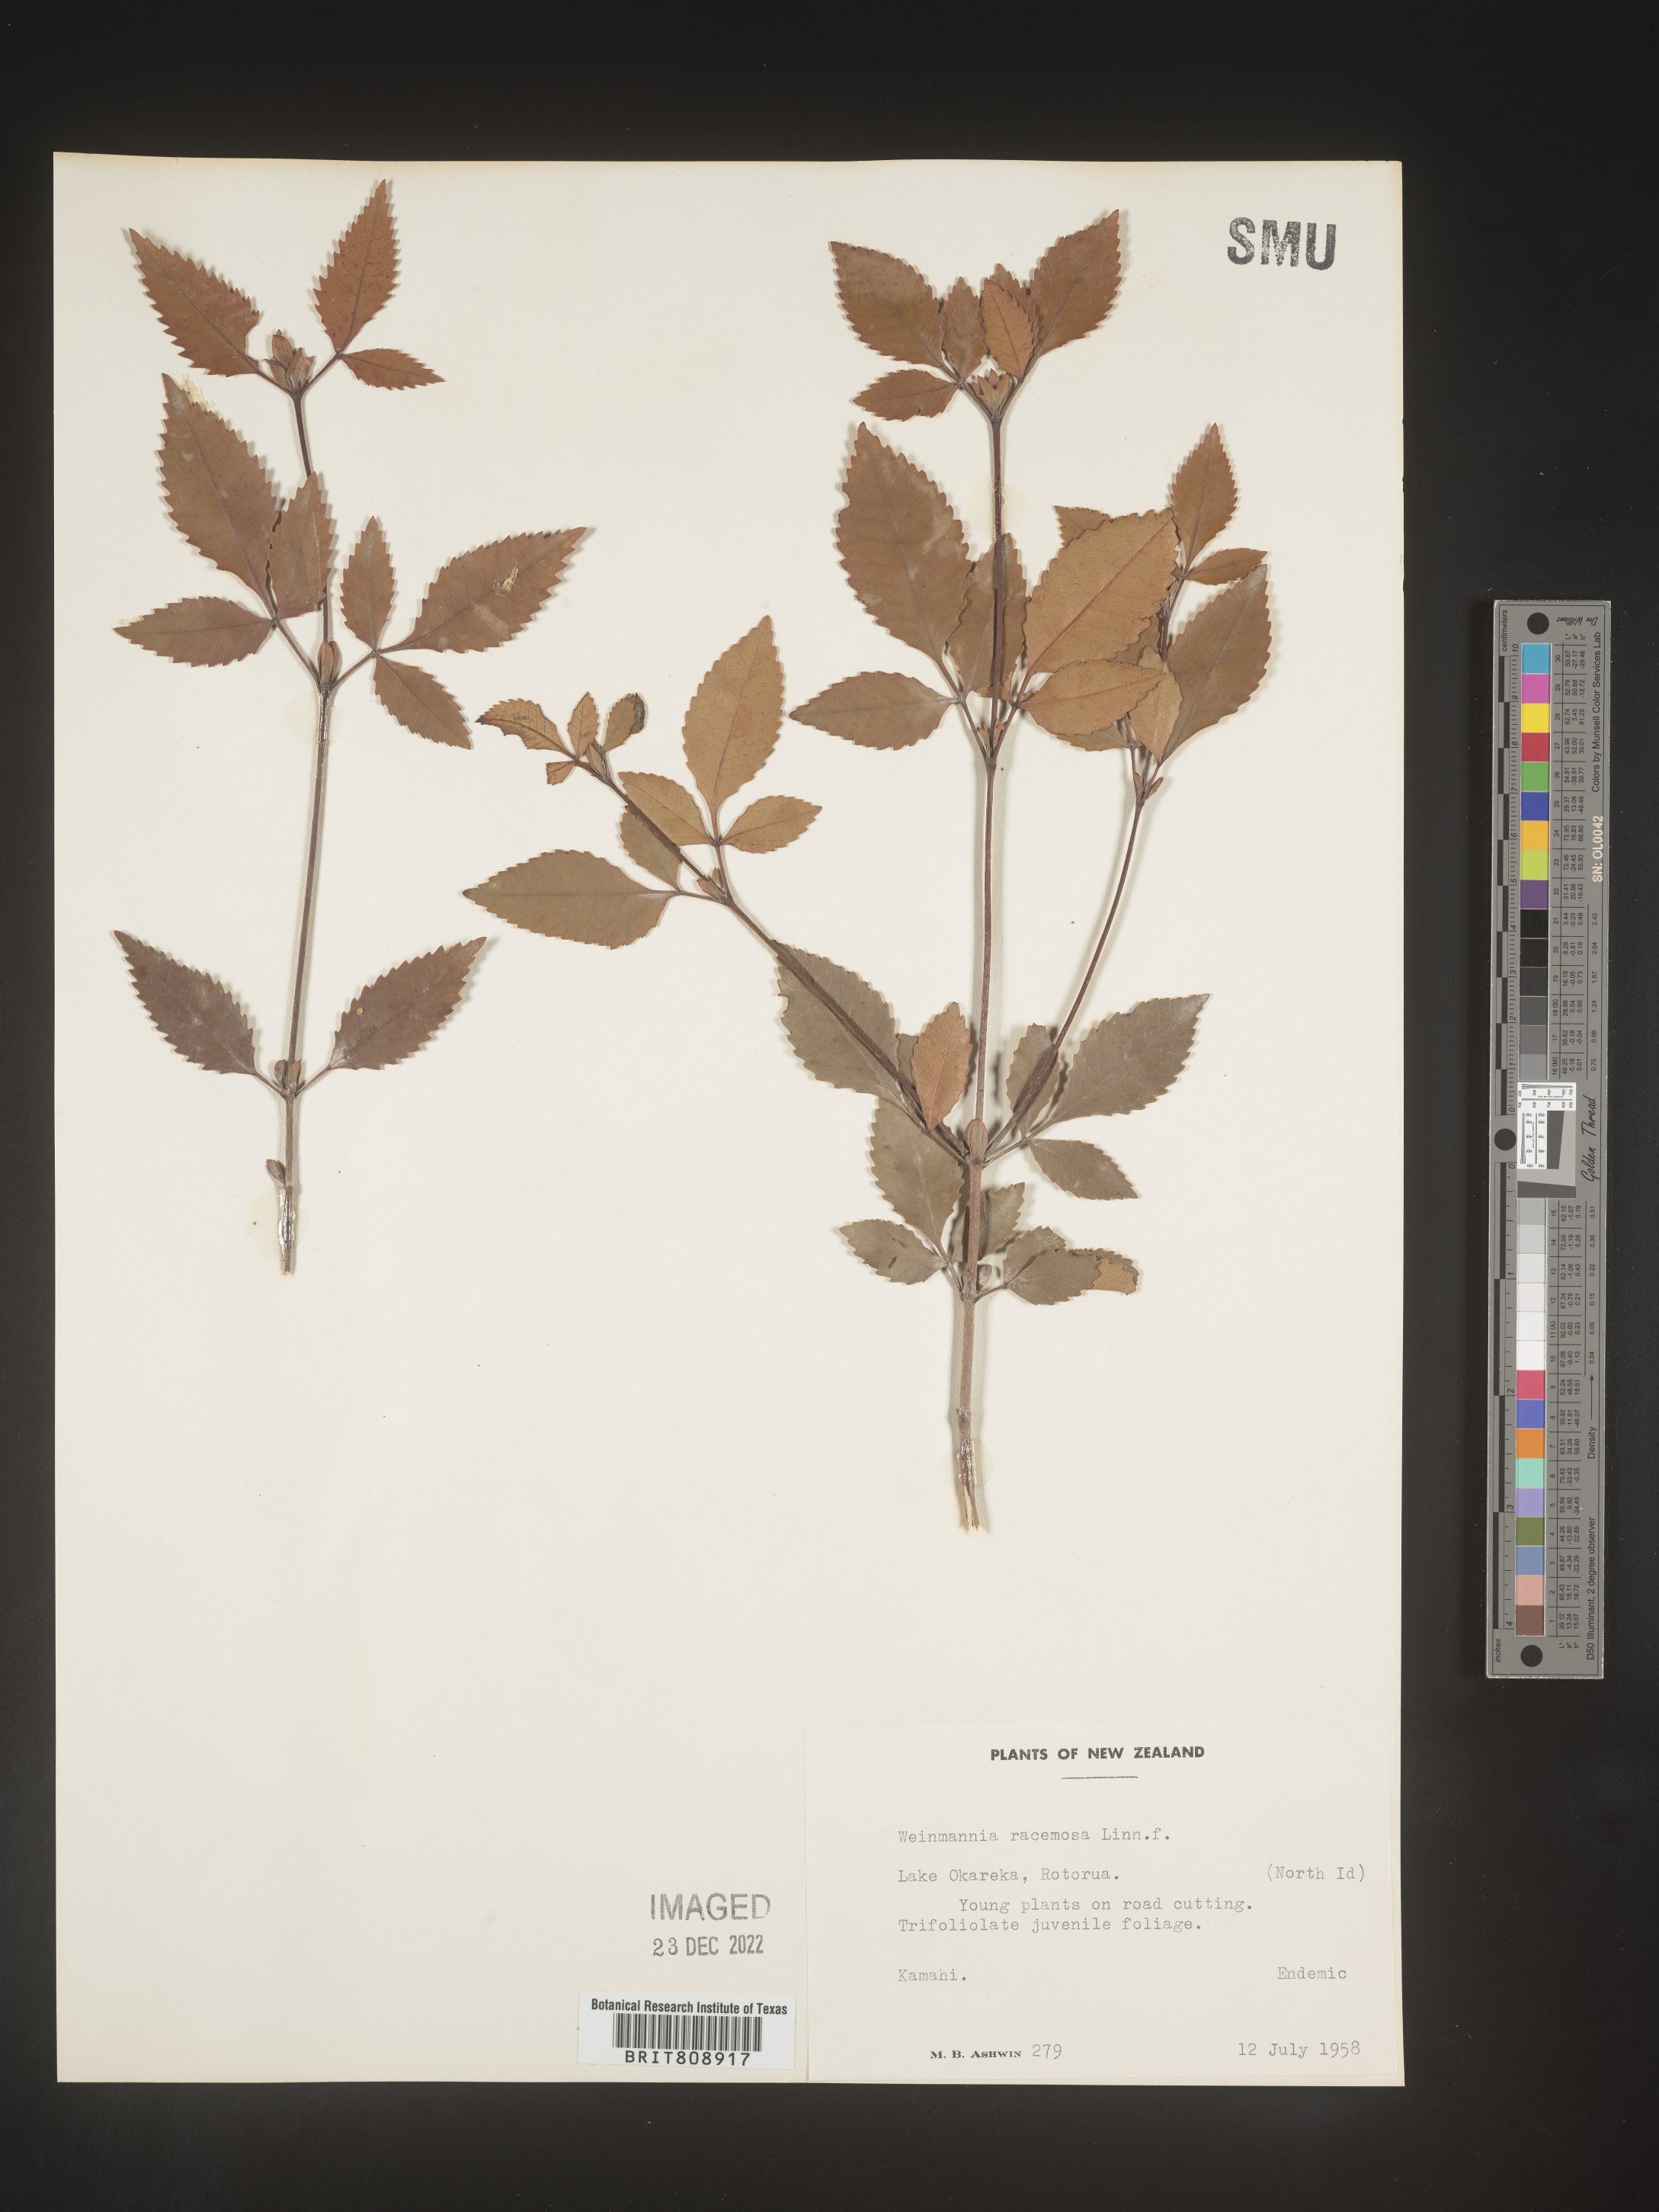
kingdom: Plantae
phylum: Tracheophyta
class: Magnoliopsida
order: Oxalidales
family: Cunoniaceae
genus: Weinmannia
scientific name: Weinmannia
